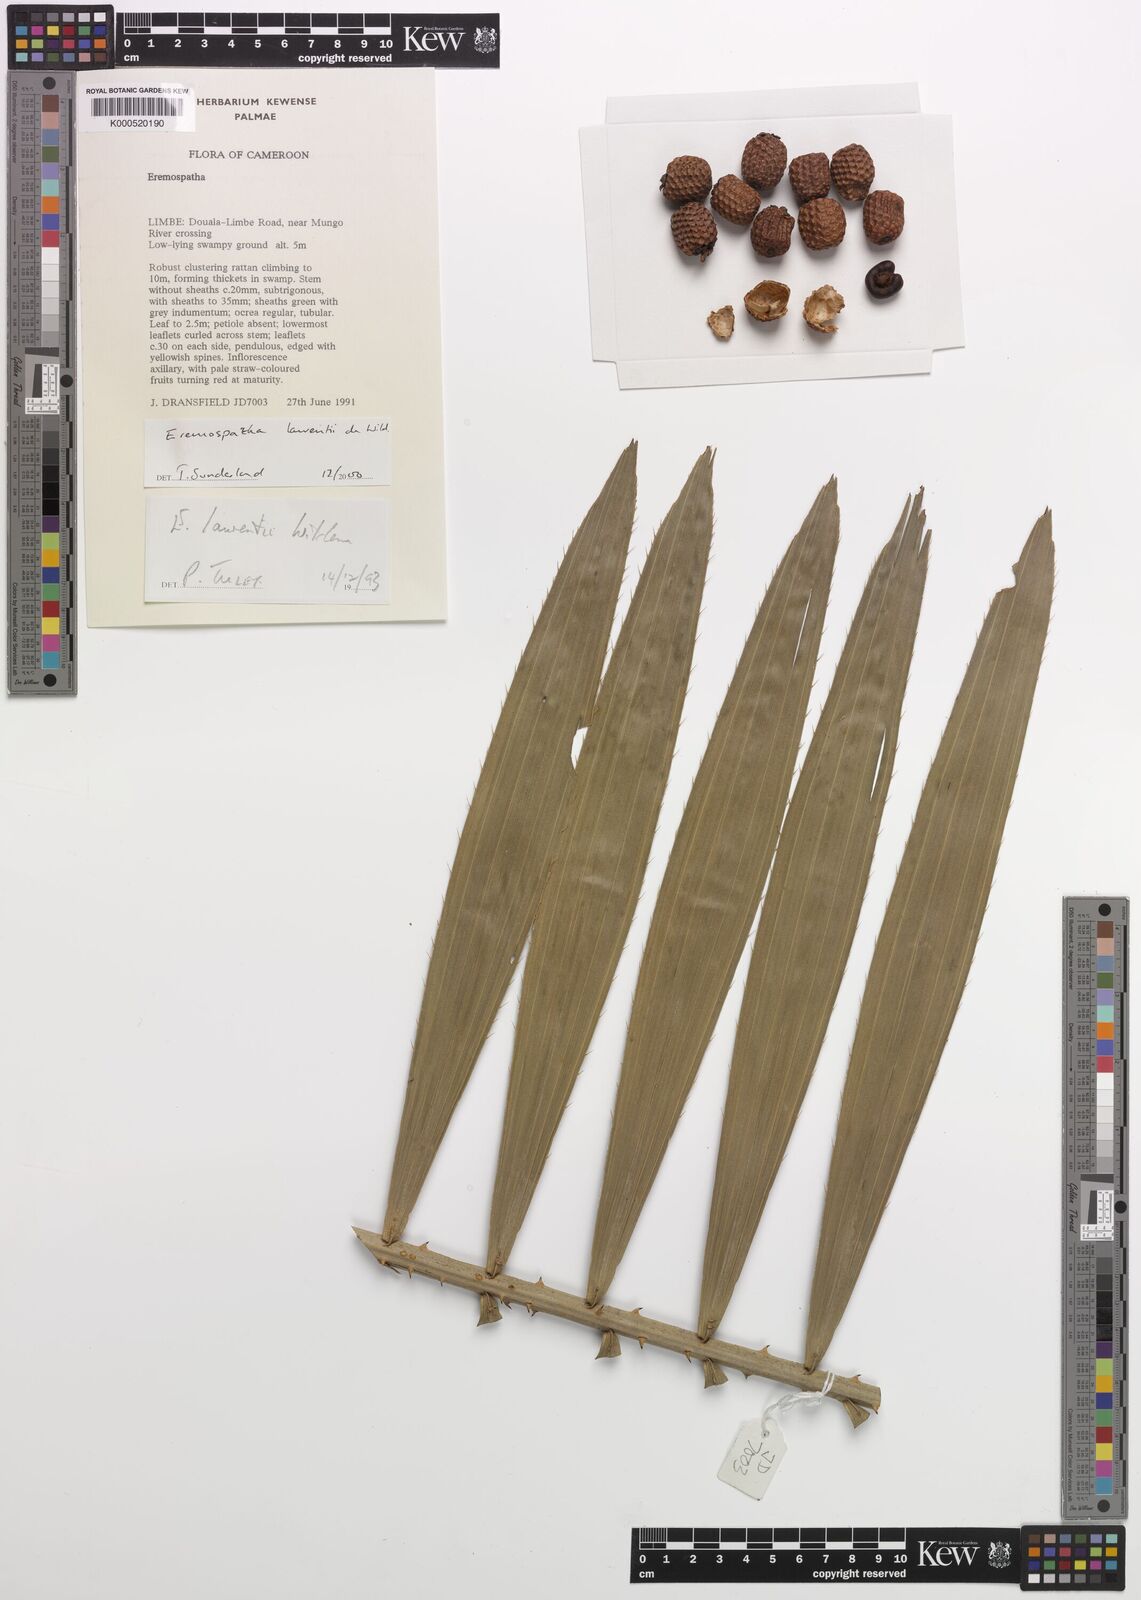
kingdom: Plantae
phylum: Tracheophyta
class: Liliopsida
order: Arecales
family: Arecaceae
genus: Eremospatha
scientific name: Eremospatha laurentii
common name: Rattan palm
